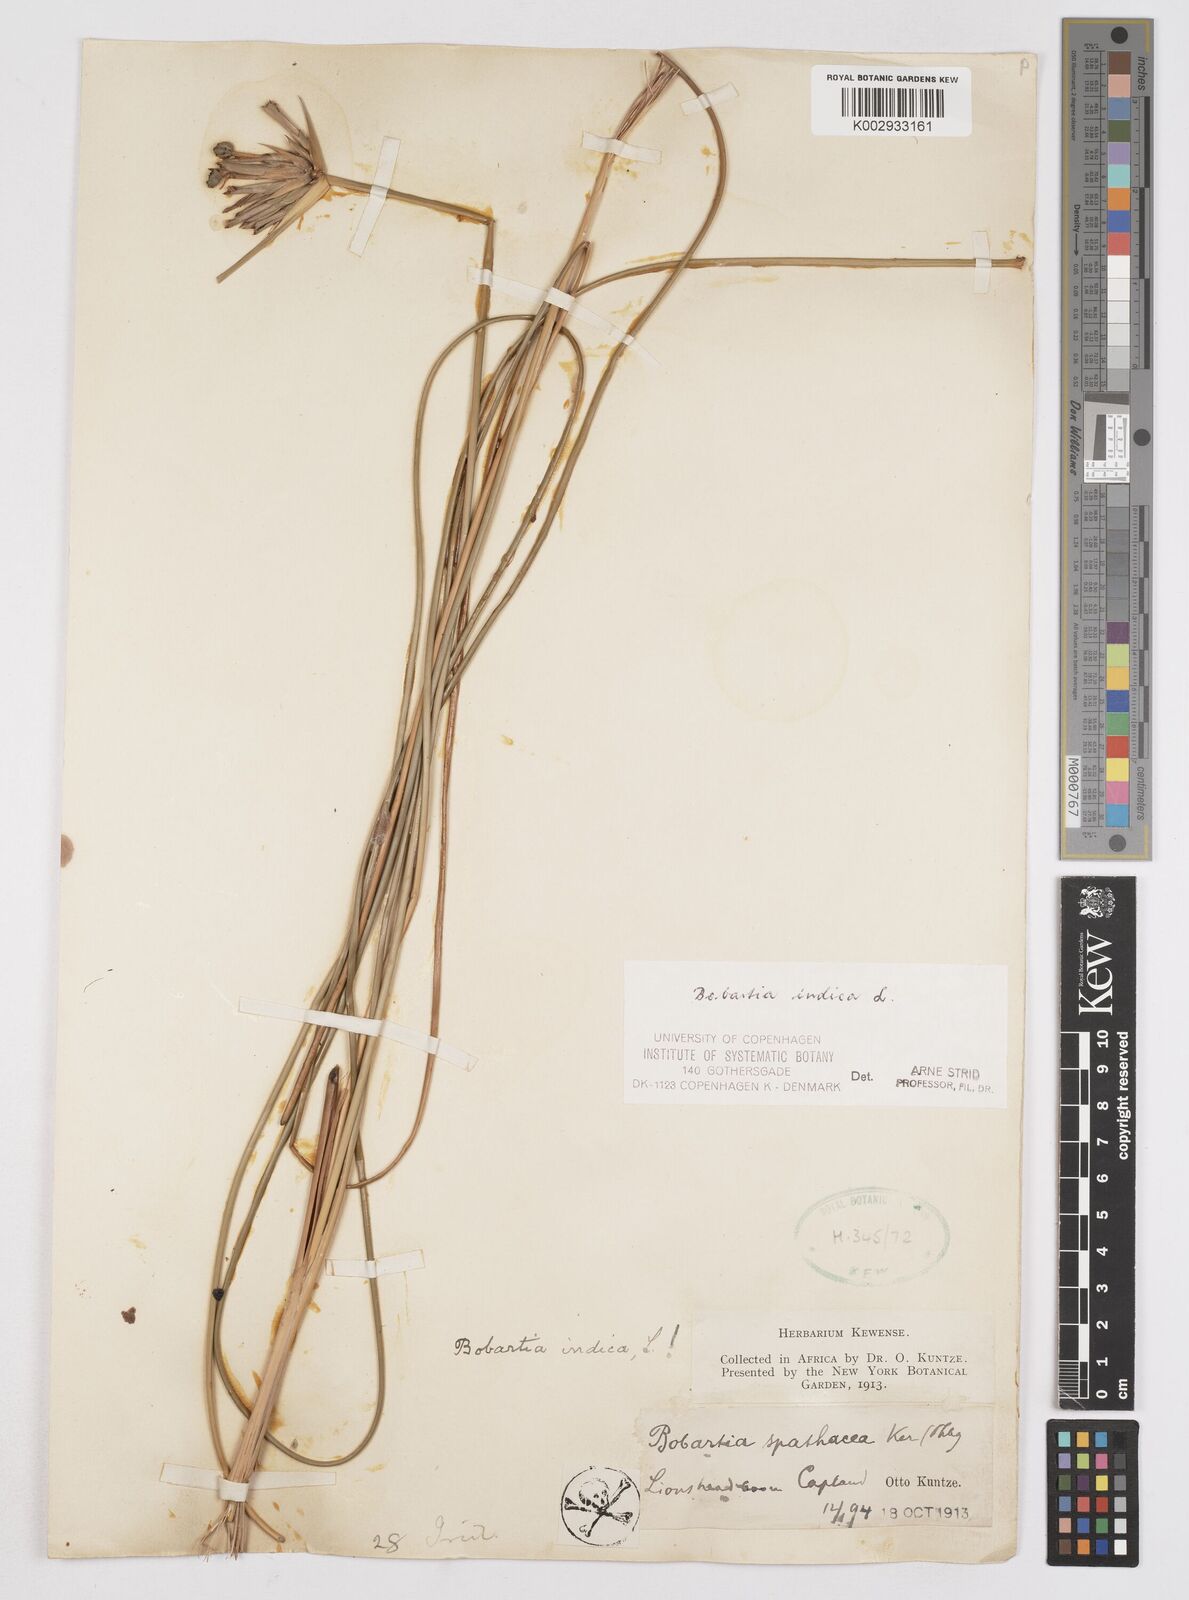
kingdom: Plantae
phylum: Tracheophyta
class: Liliopsida
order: Asparagales
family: Iridaceae
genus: Bobartia
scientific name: Bobartia indica
